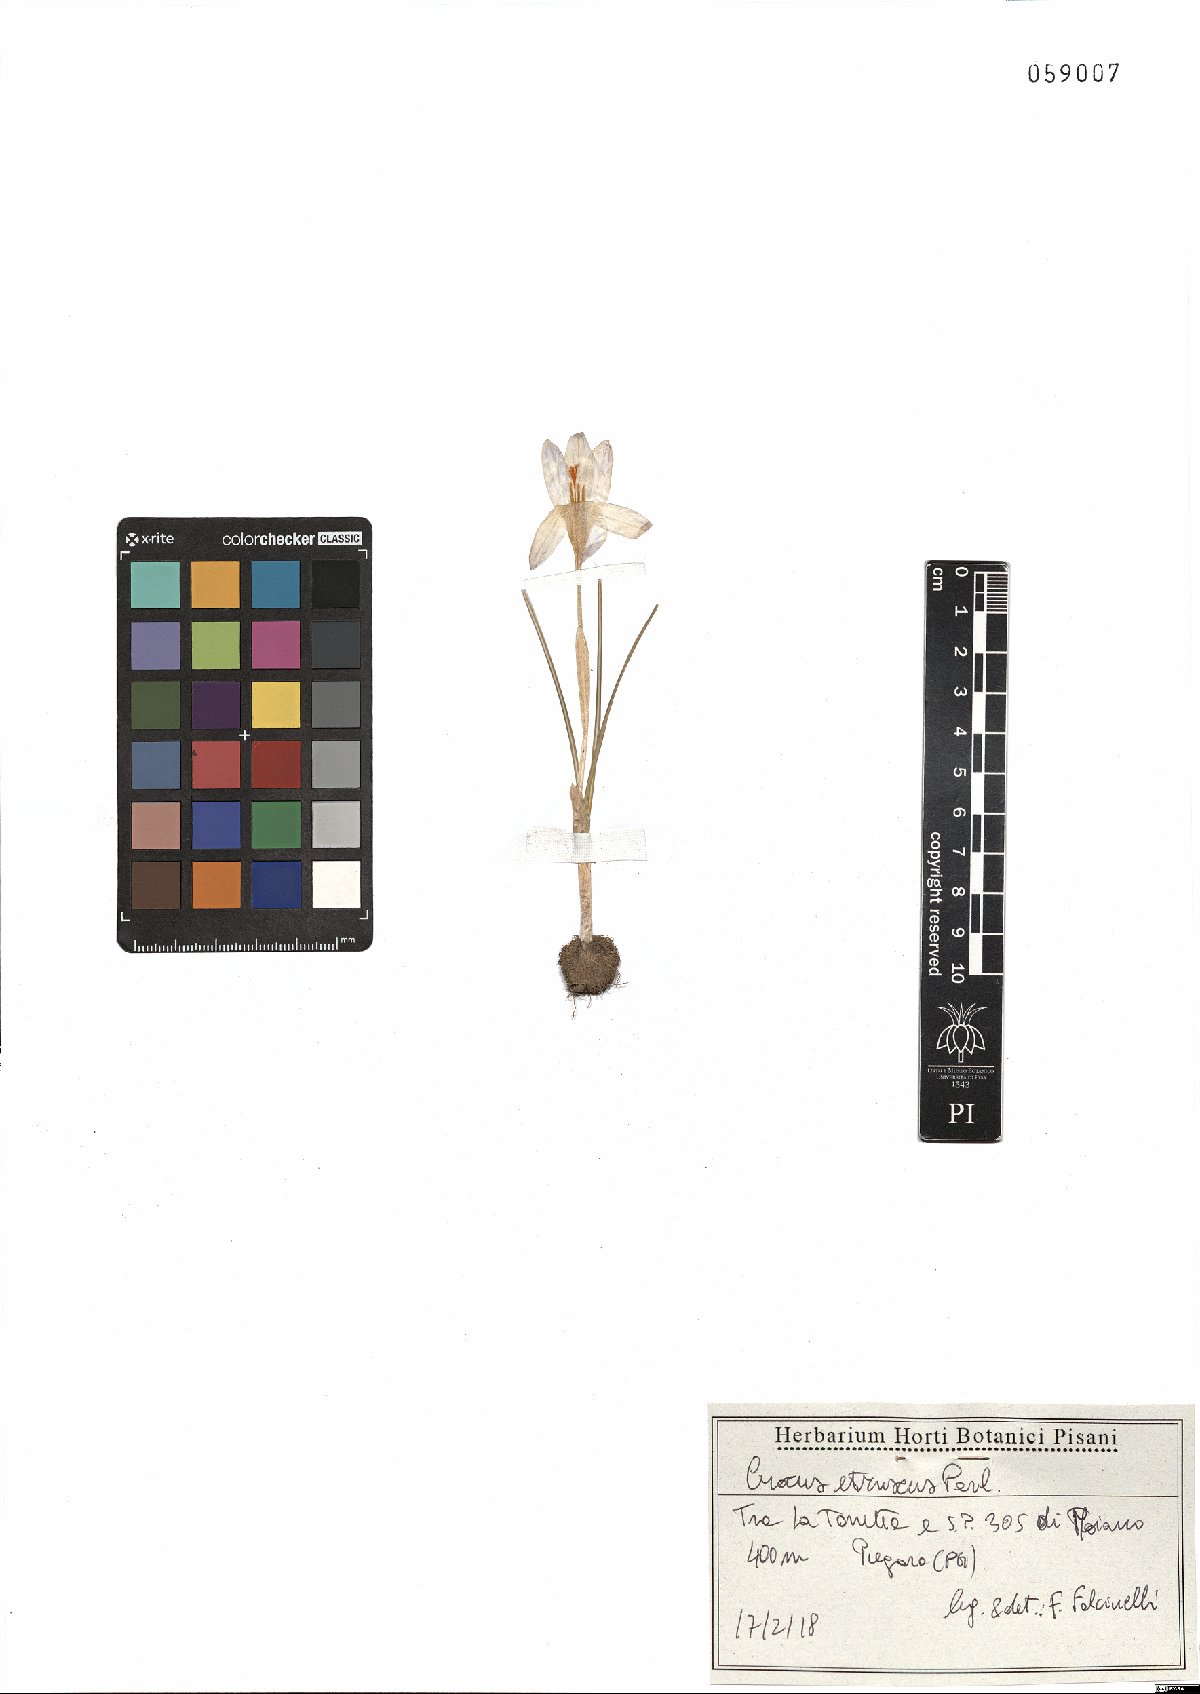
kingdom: Plantae
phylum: Tracheophyta
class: Liliopsida
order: Asparagales
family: Iridaceae
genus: Crocus
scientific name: Crocus etruscus
